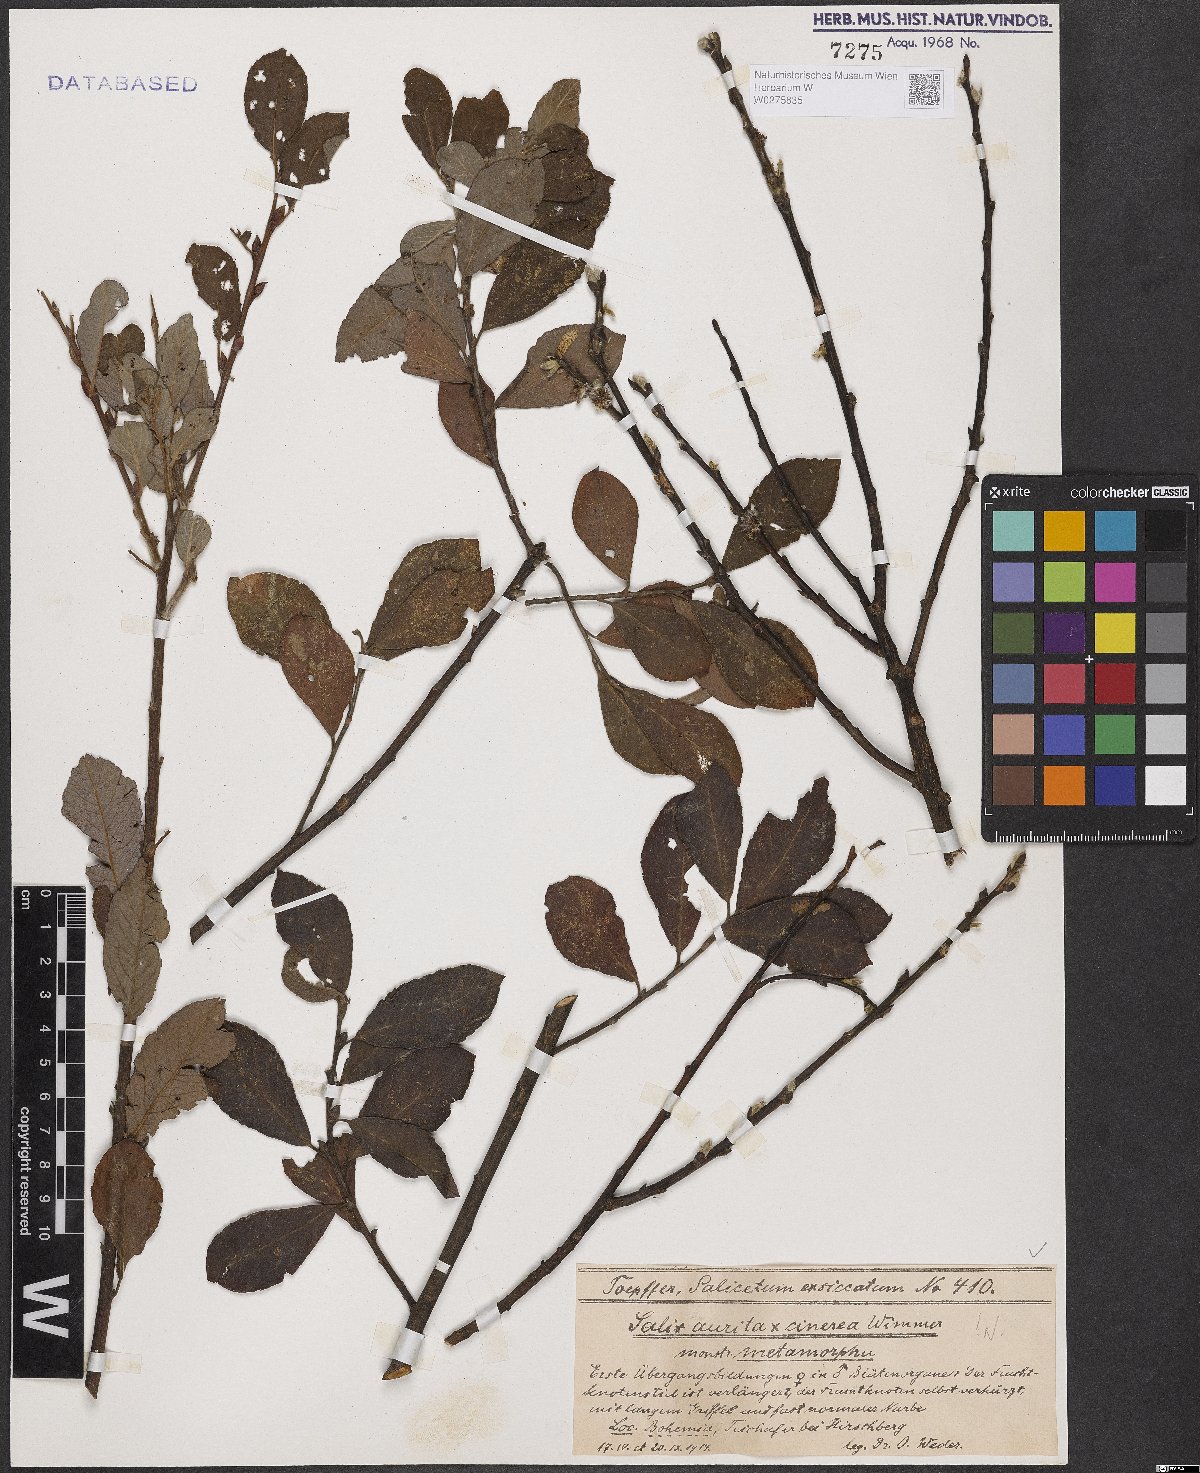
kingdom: Plantae
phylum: Tracheophyta
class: Magnoliopsida
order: Malpighiales
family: Salicaceae
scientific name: Salicaceae
